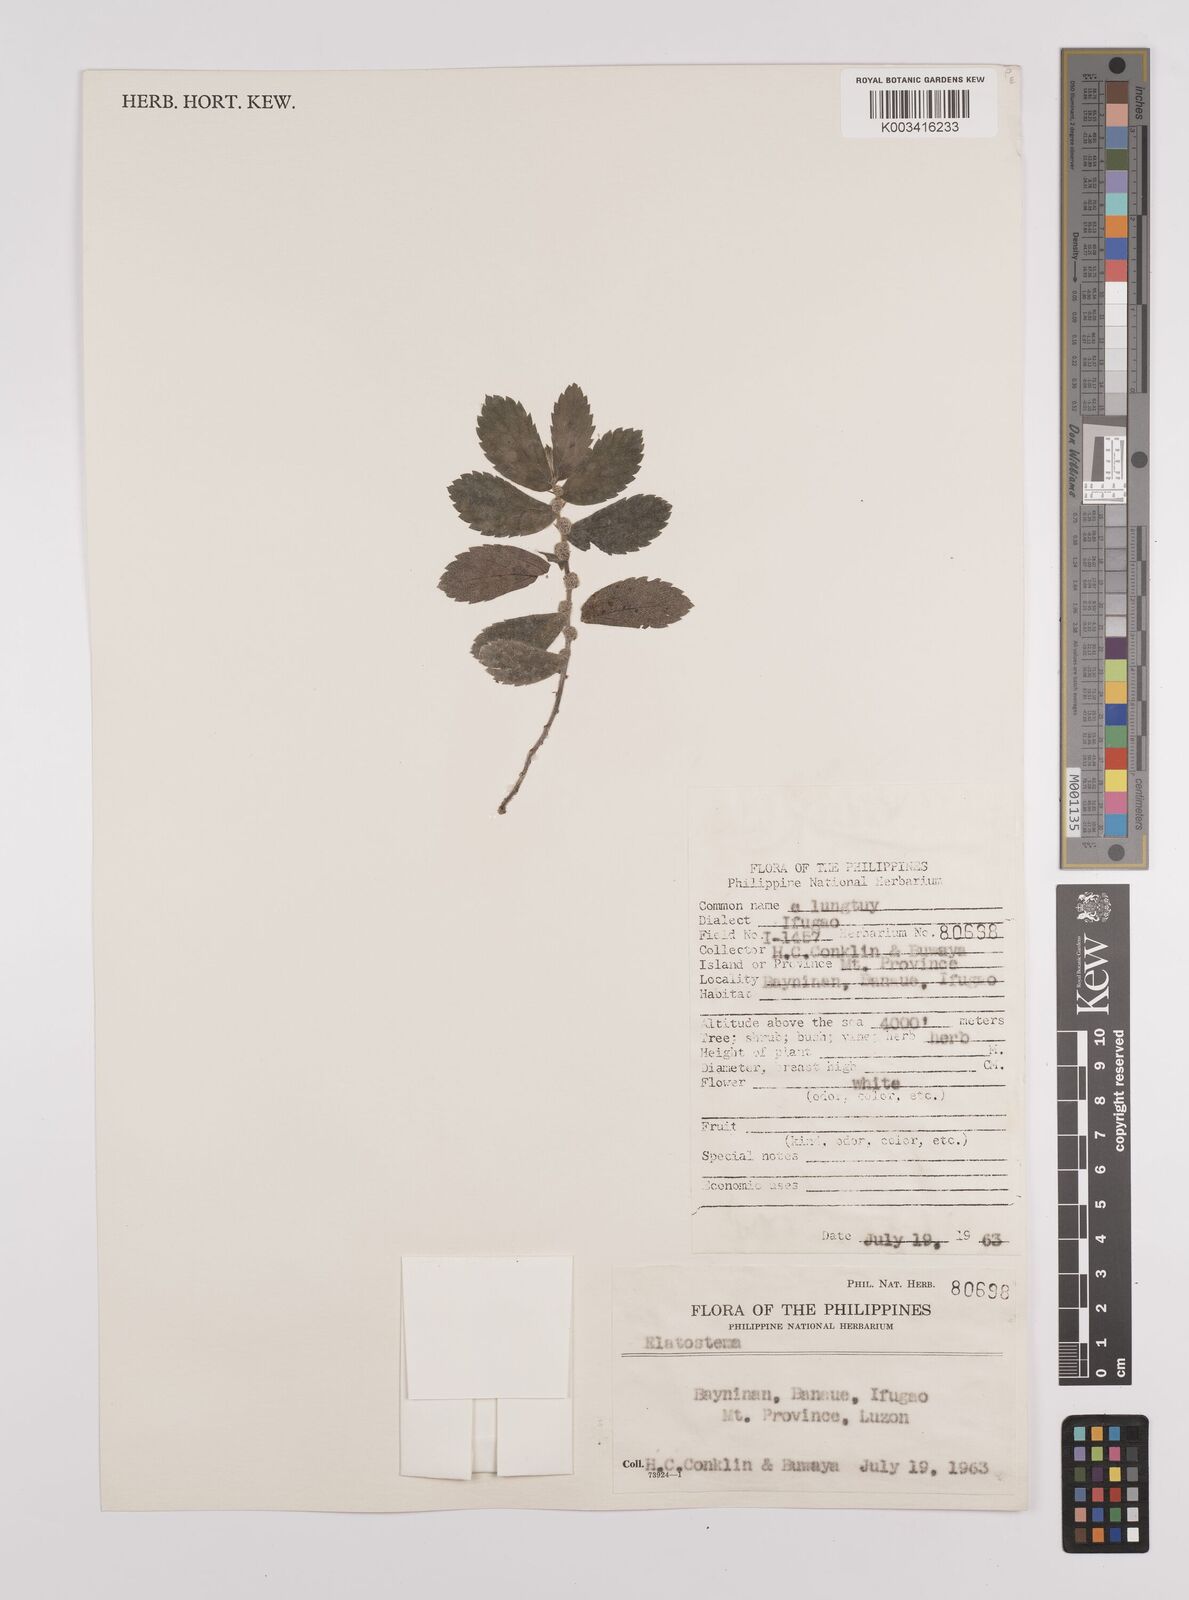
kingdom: Plantae
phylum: Tracheophyta
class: Magnoliopsida
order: Rosales
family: Urticaceae
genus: Elatostema
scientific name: Elatostema
